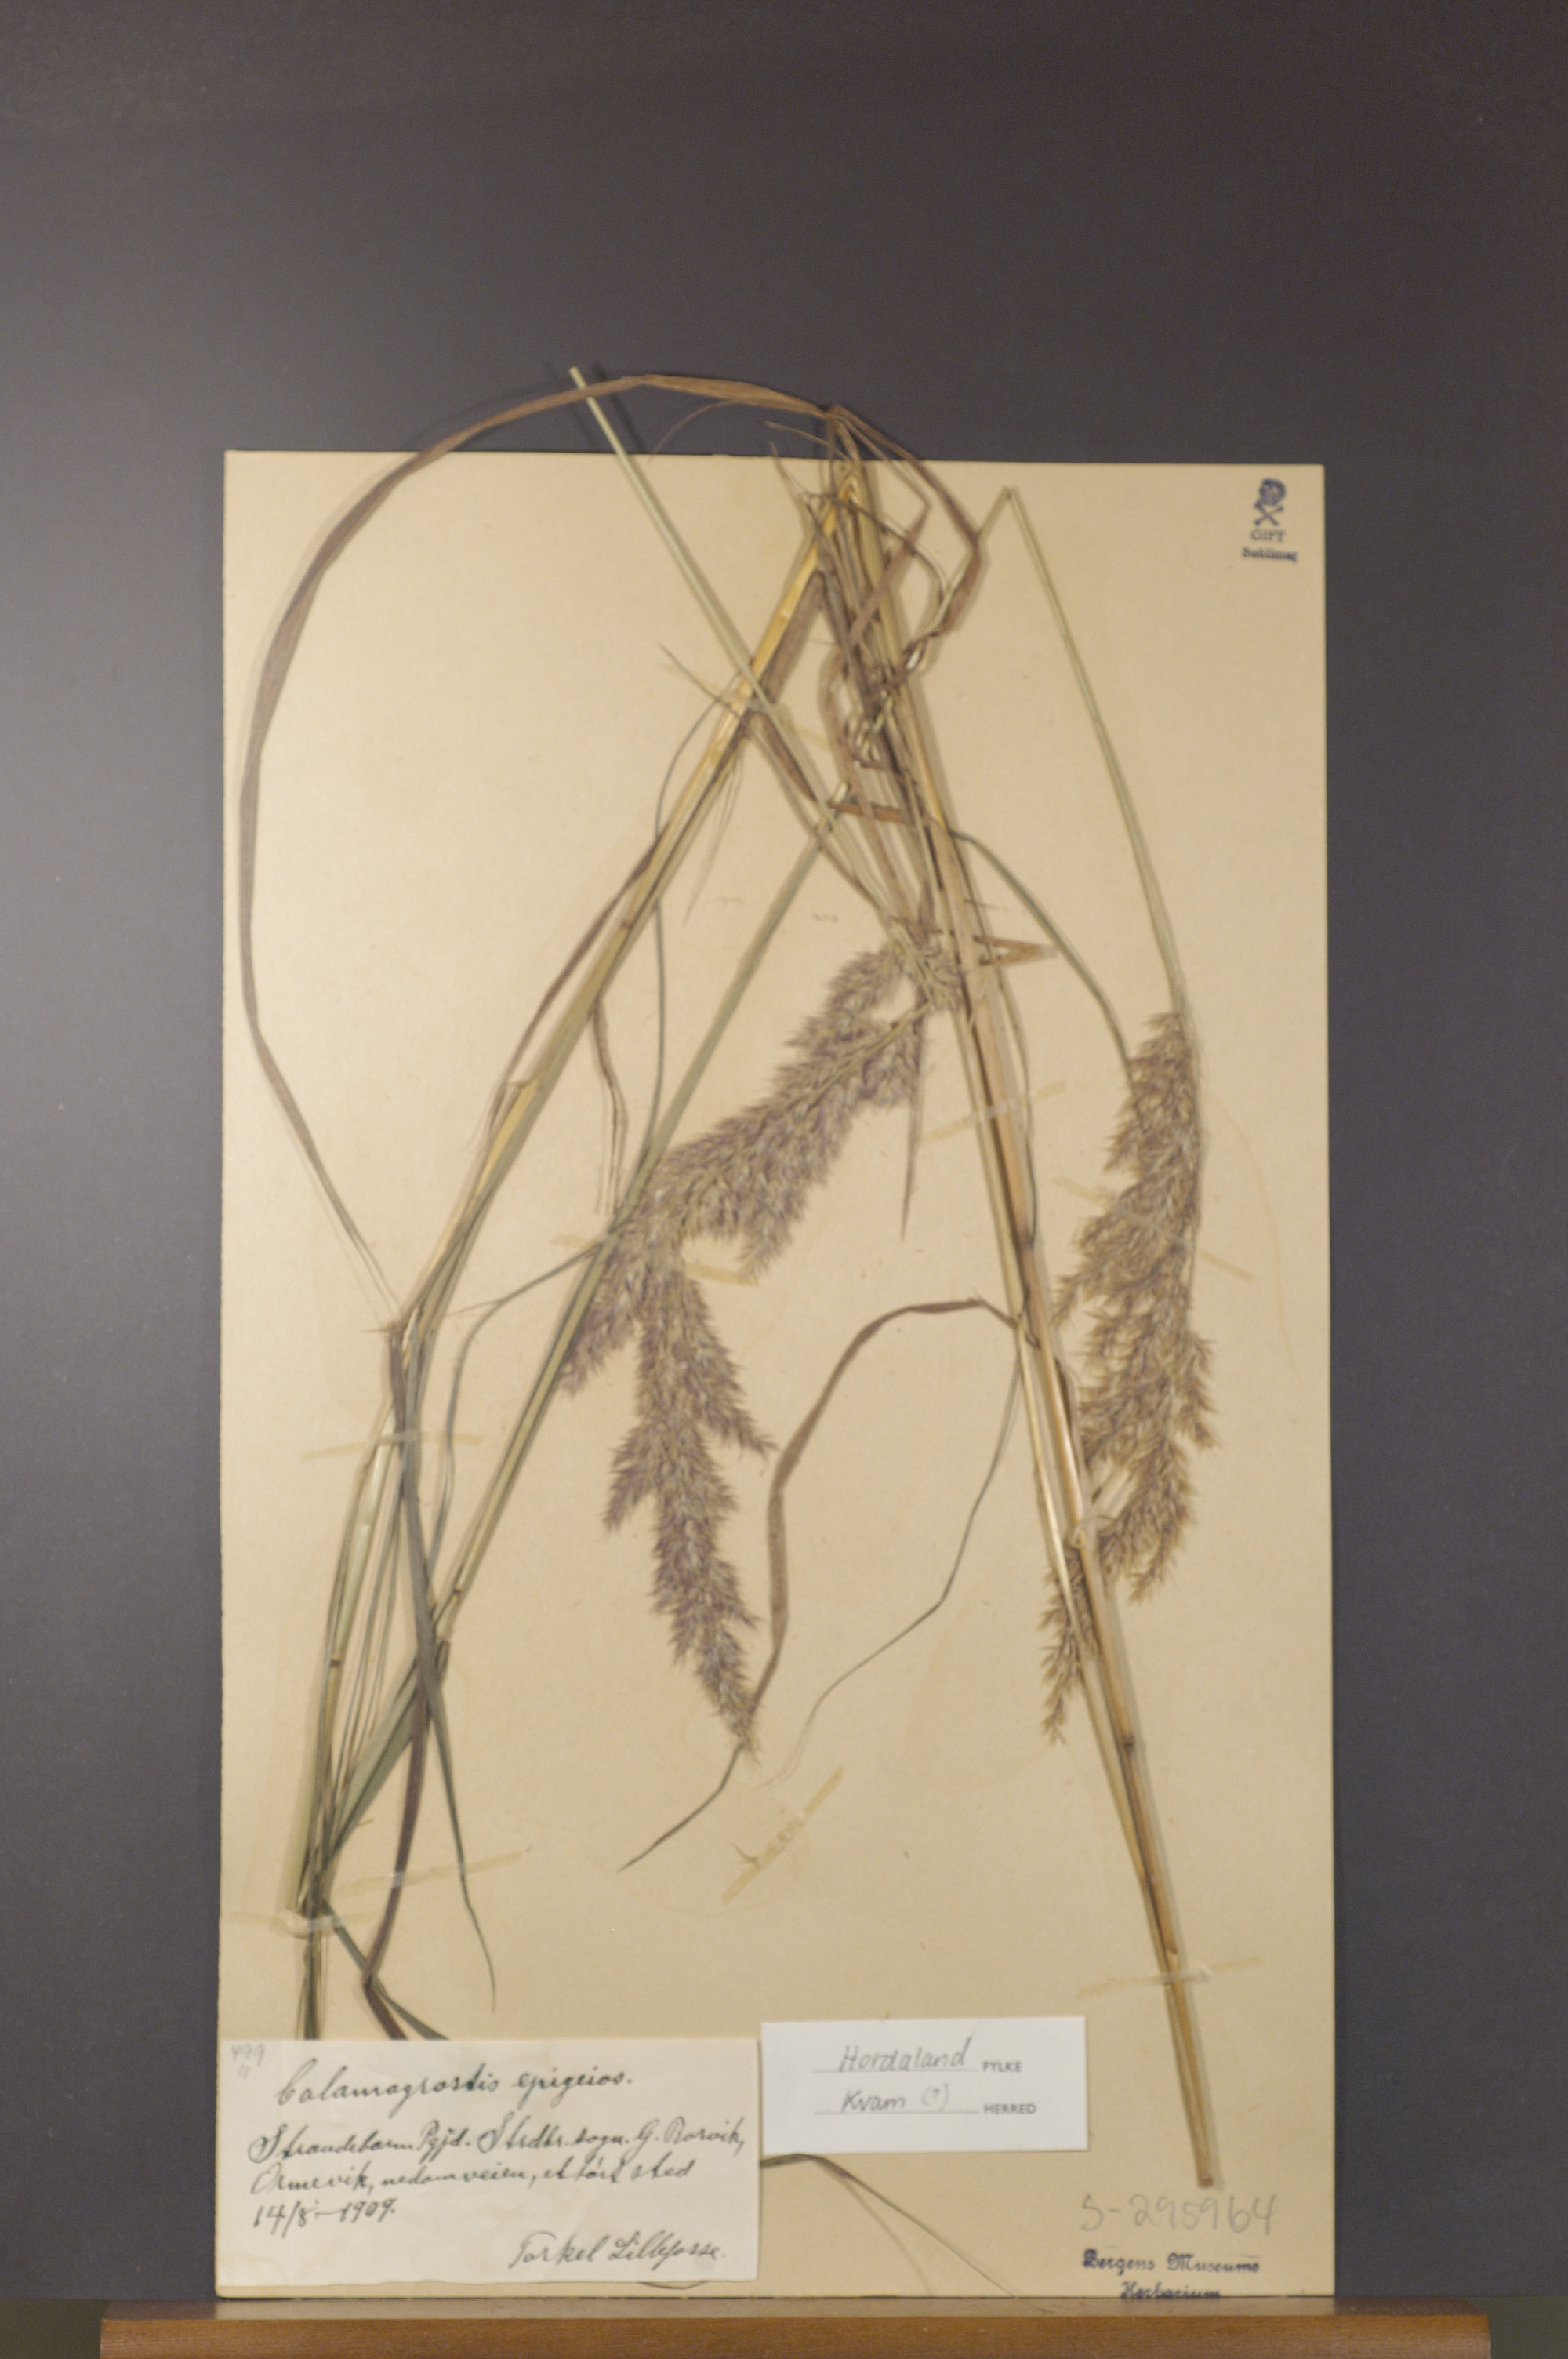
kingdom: Plantae
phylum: Tracheophyta
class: Liliopsida
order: Poales
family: Poaceae
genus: Calamagrostis
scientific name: Calamagrostis epigejos
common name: Wood small-reed
